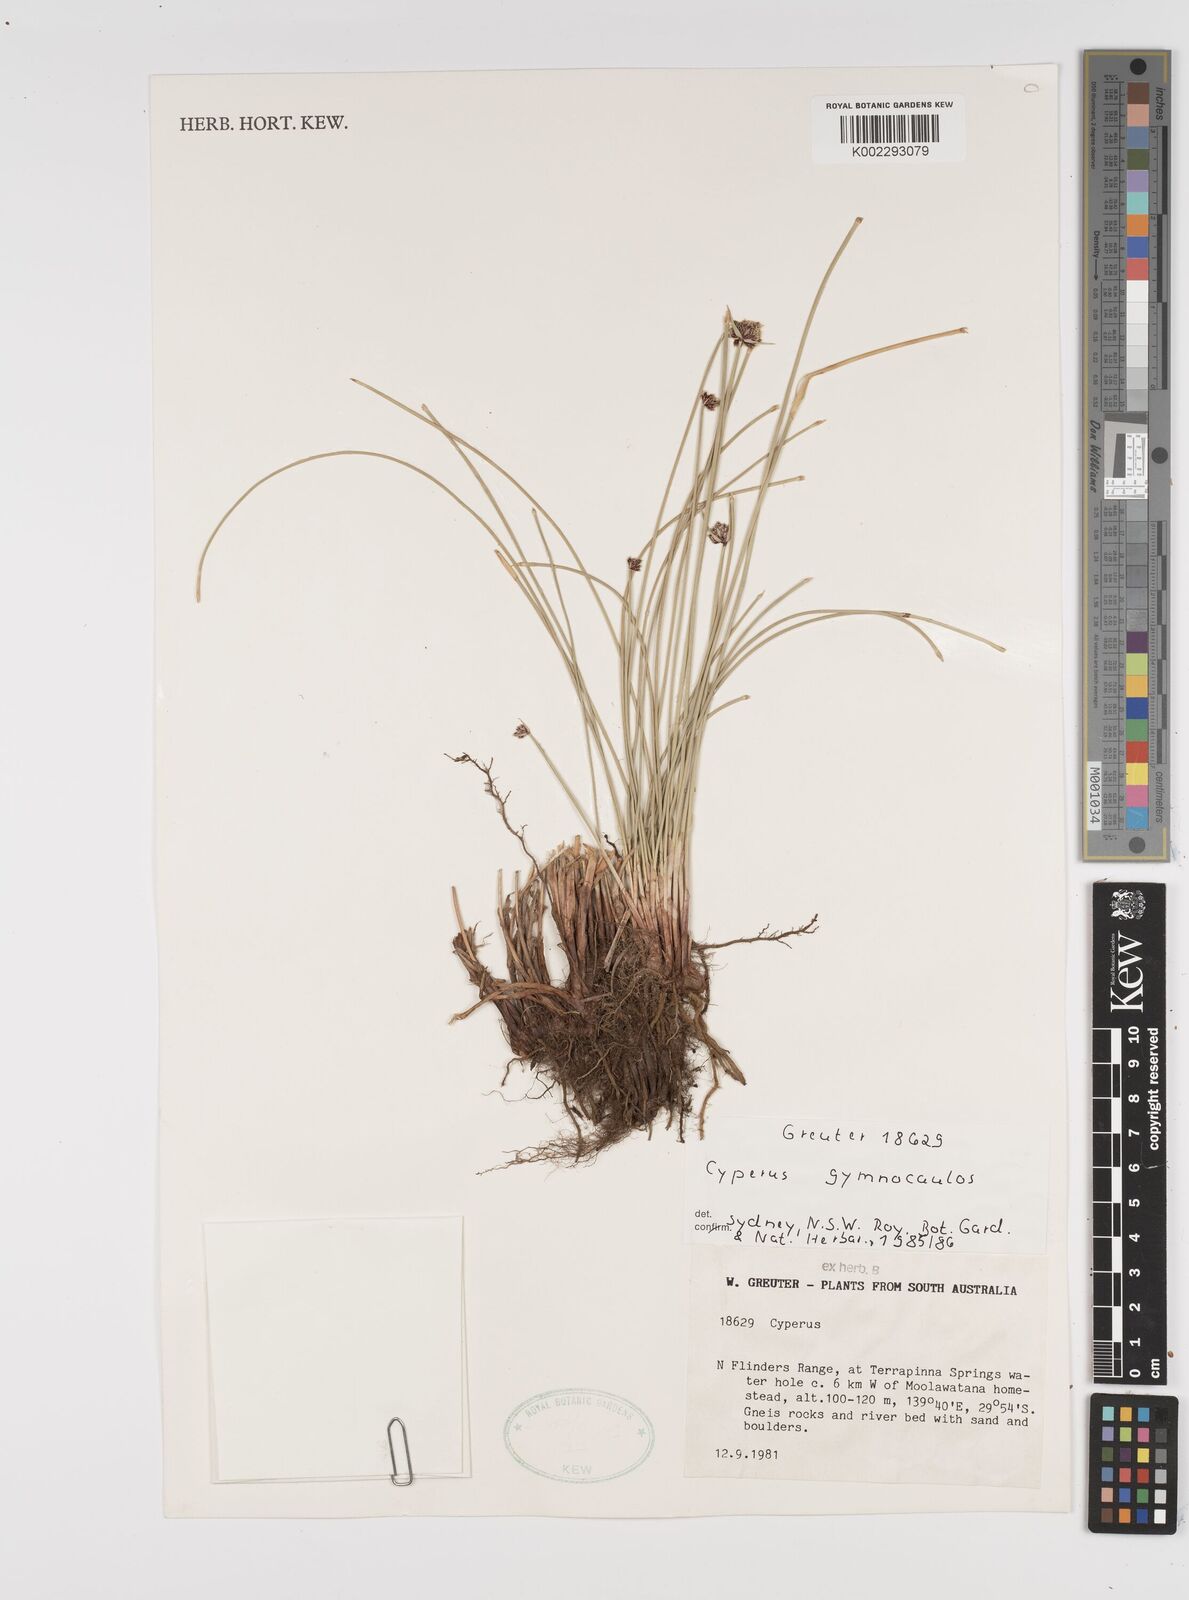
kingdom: Plantae
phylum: Tracheophyta
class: Liliopsida
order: Poales
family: Cyperaceae
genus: Cyperus
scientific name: Cyperus vaginatus
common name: Stiff-leaved flat-sedge
